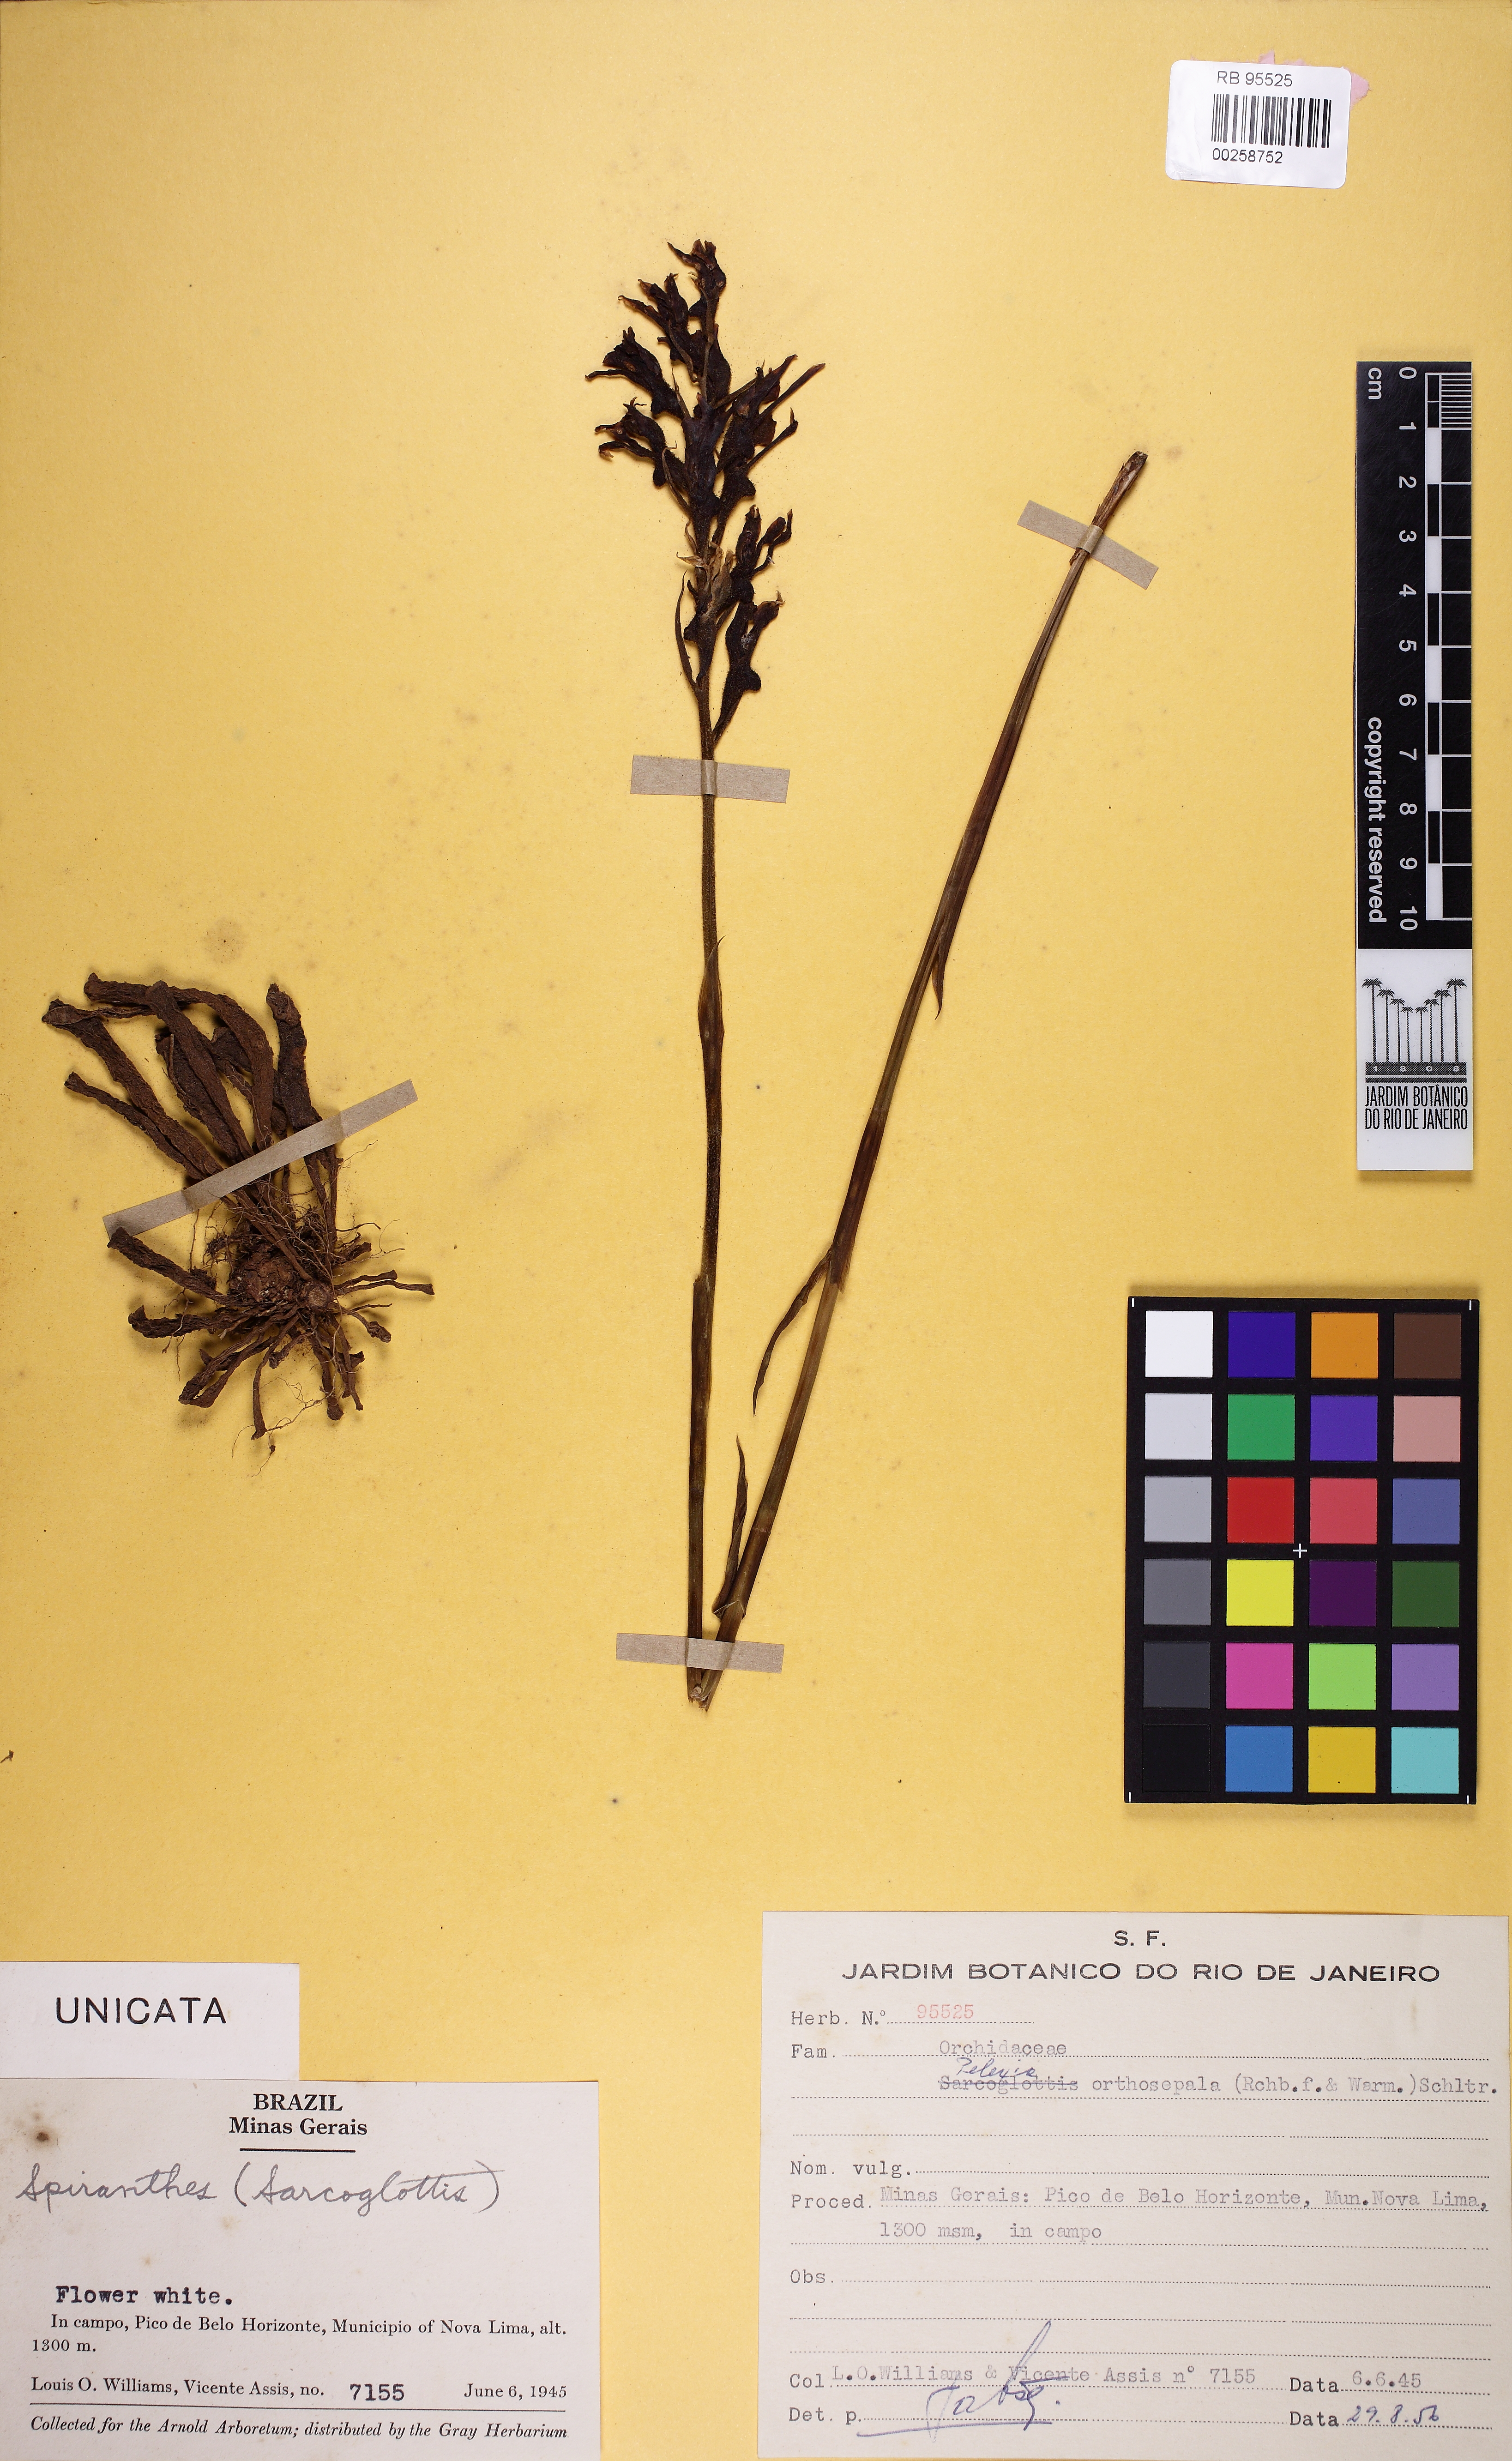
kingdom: Plantae
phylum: Tracheophyta
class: Liliopsida
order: Asparagales
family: Orchidaceae
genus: Pelexia
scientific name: Pelexia orthosepala
